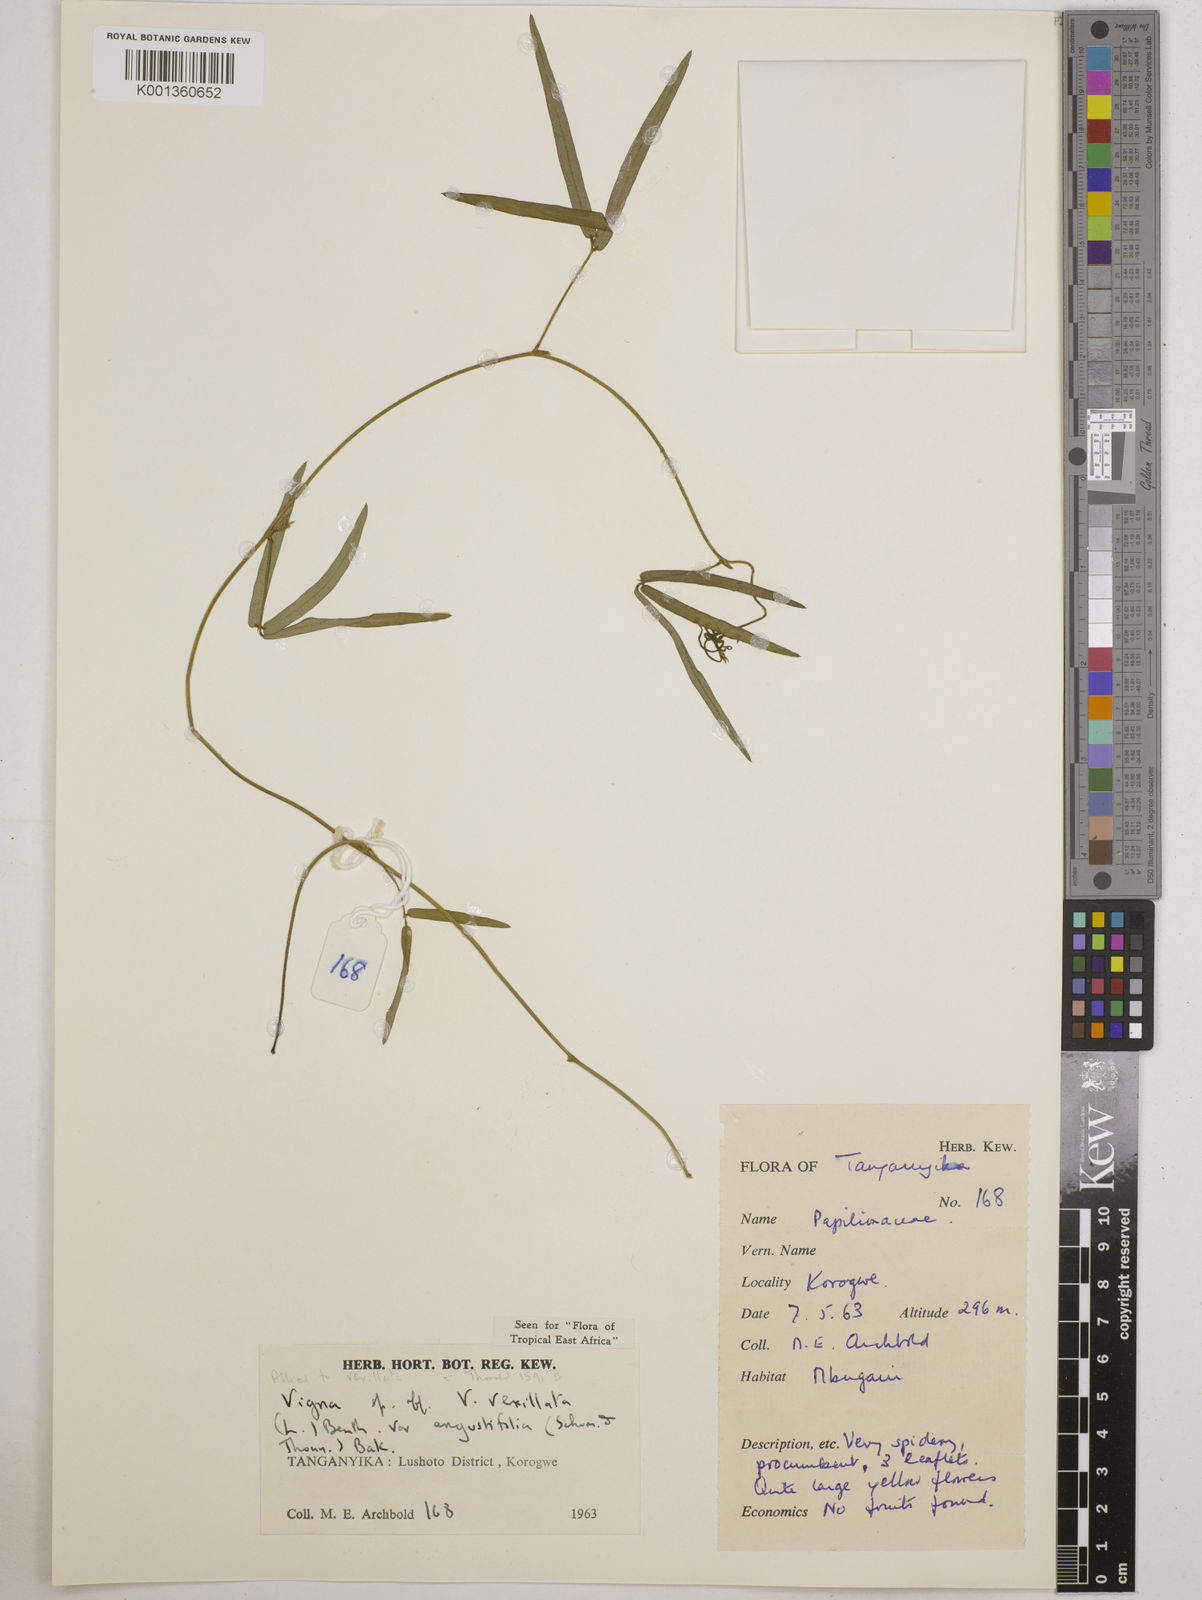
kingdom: Plantae
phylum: Tracheophyta
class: Magnoliopsida
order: Fabales
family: Fabaceae
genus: Vigna
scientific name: Vigna vexillata
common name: Zombi pea
